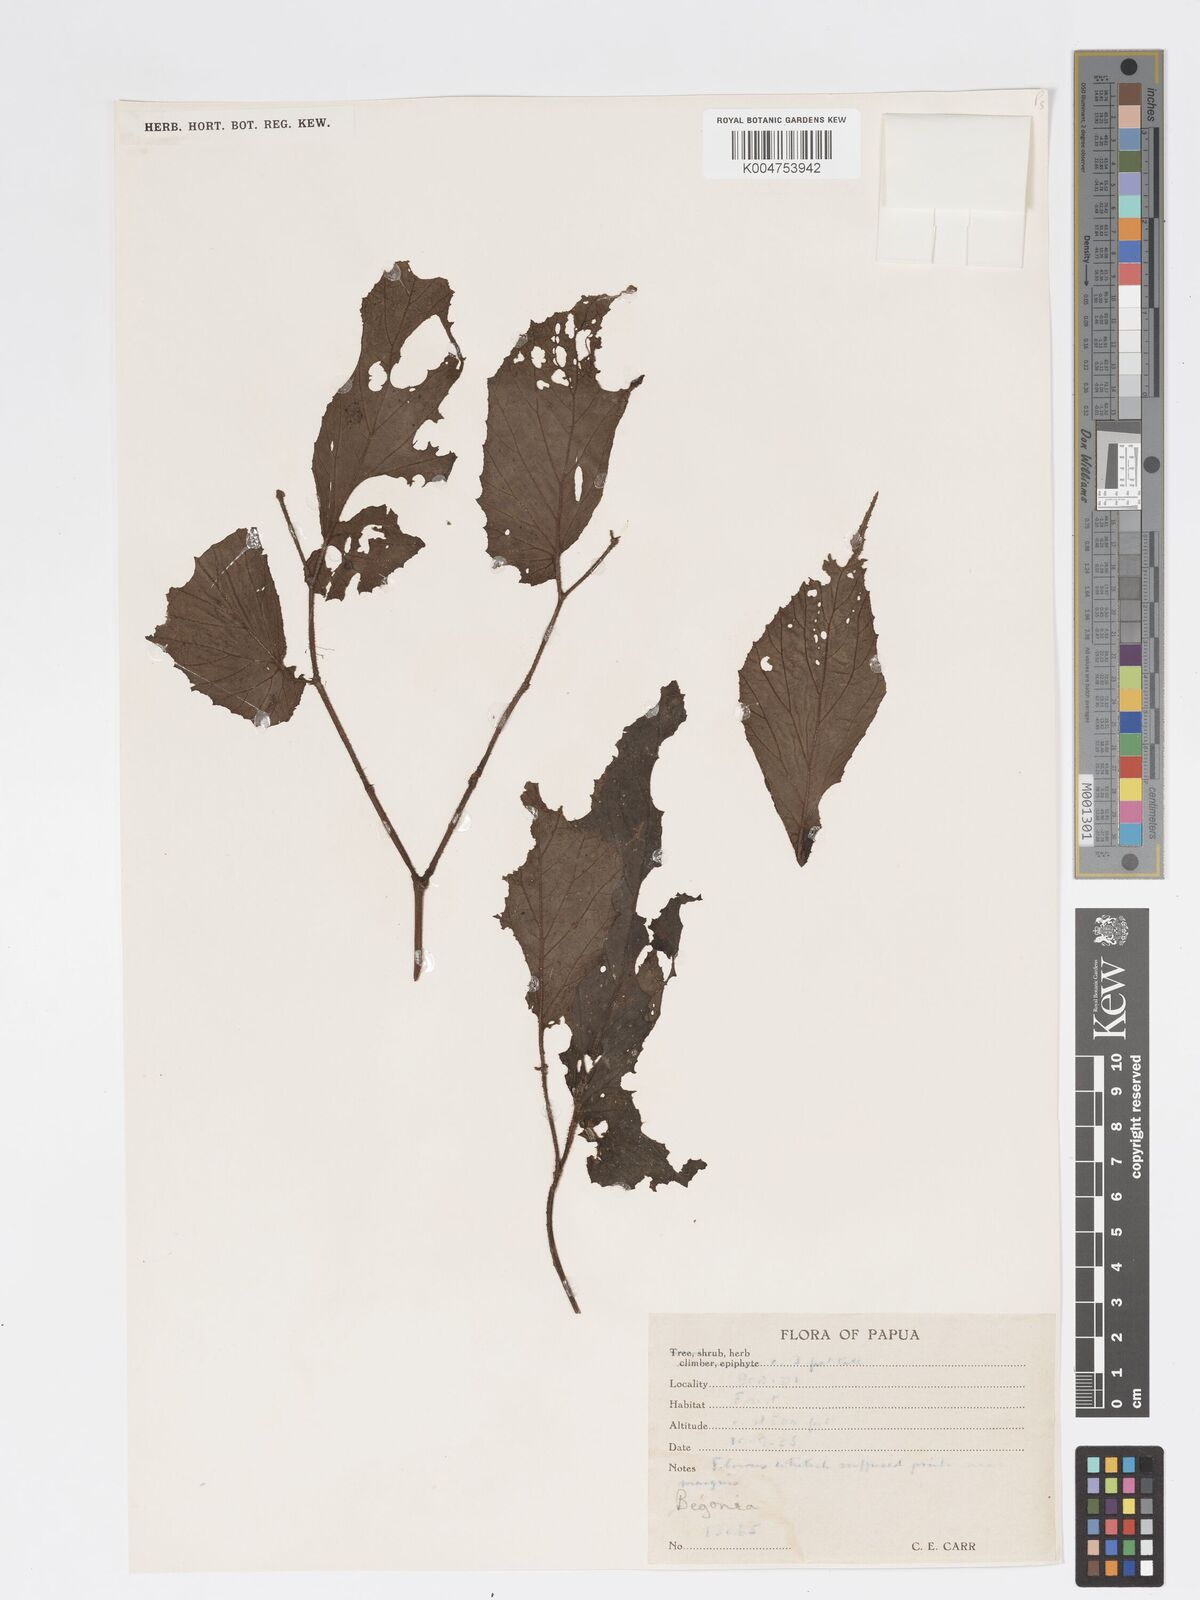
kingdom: Plantae
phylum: Tracheophyta
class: Magnoliopsida
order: Cucurbitales
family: Begoniaceae
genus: Begonia
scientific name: Begonia torricellensis
